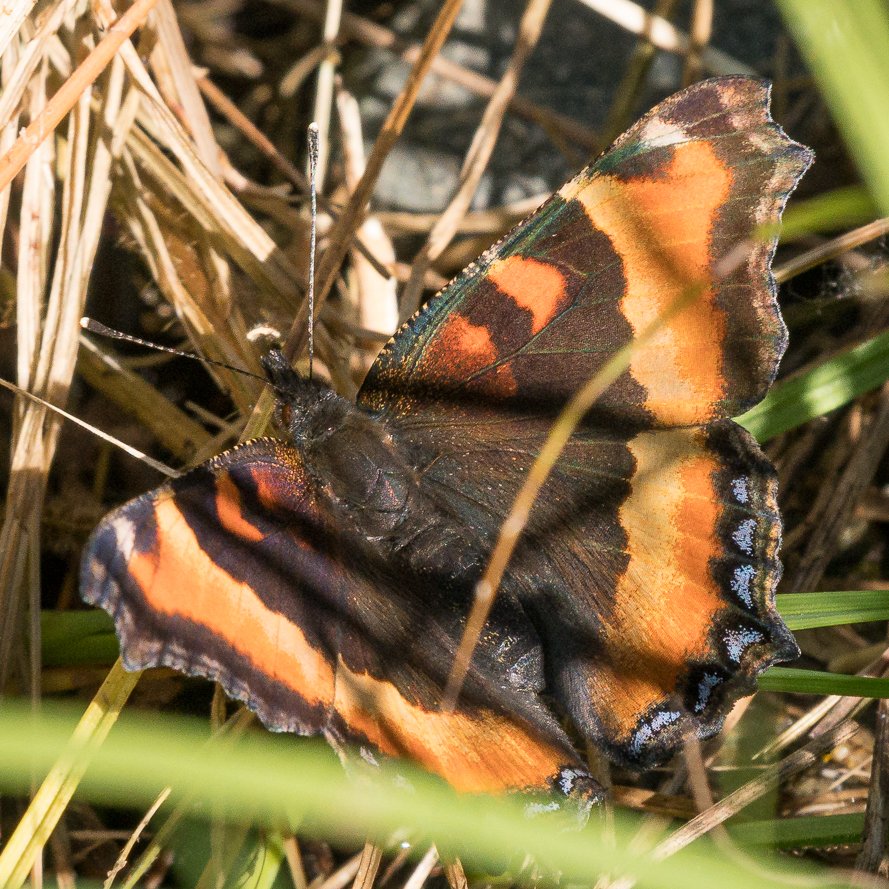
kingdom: Animalia
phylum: Arthropoda
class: Insecta
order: Lepidoptera
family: Nymphalidae
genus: Aglais
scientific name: Aglais milberti
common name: Milbert's Tortoiseshell
